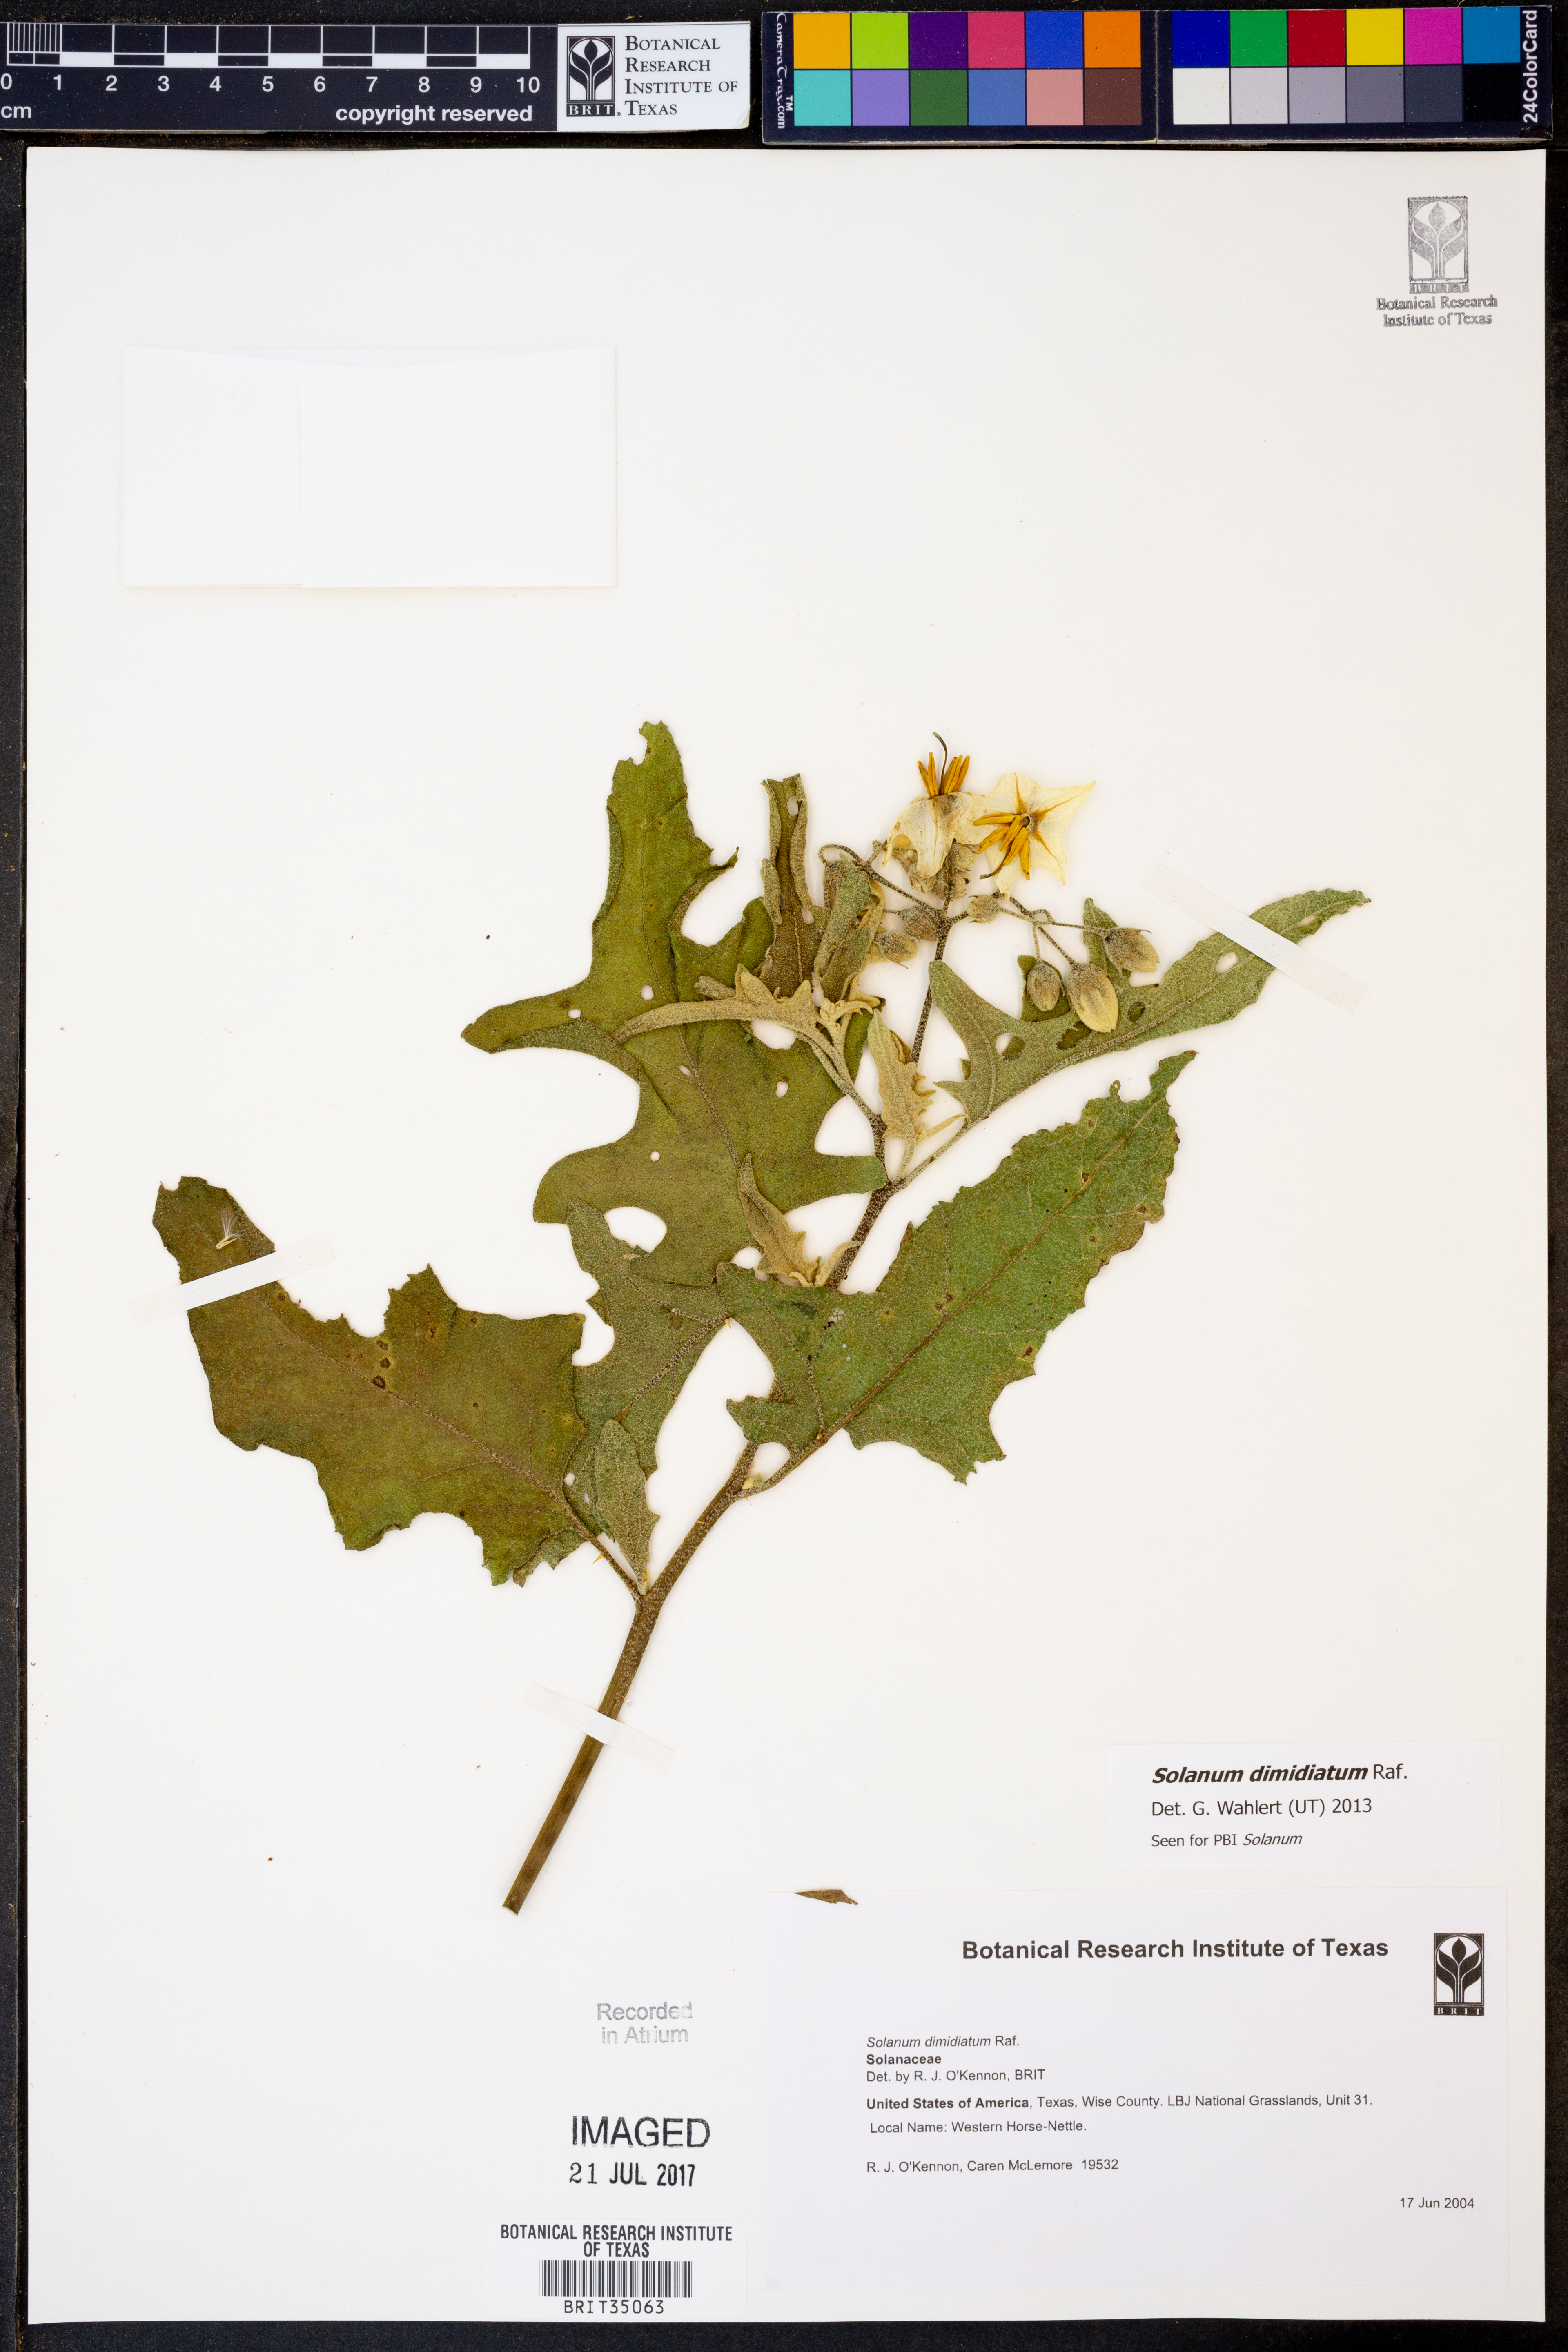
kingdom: Plantae
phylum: Tracheophyta
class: Magnoliopsida
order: Solanales
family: Solanaceae
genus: Solanum
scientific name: Solanum dimidiatum
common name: Carolina horse-nettle
